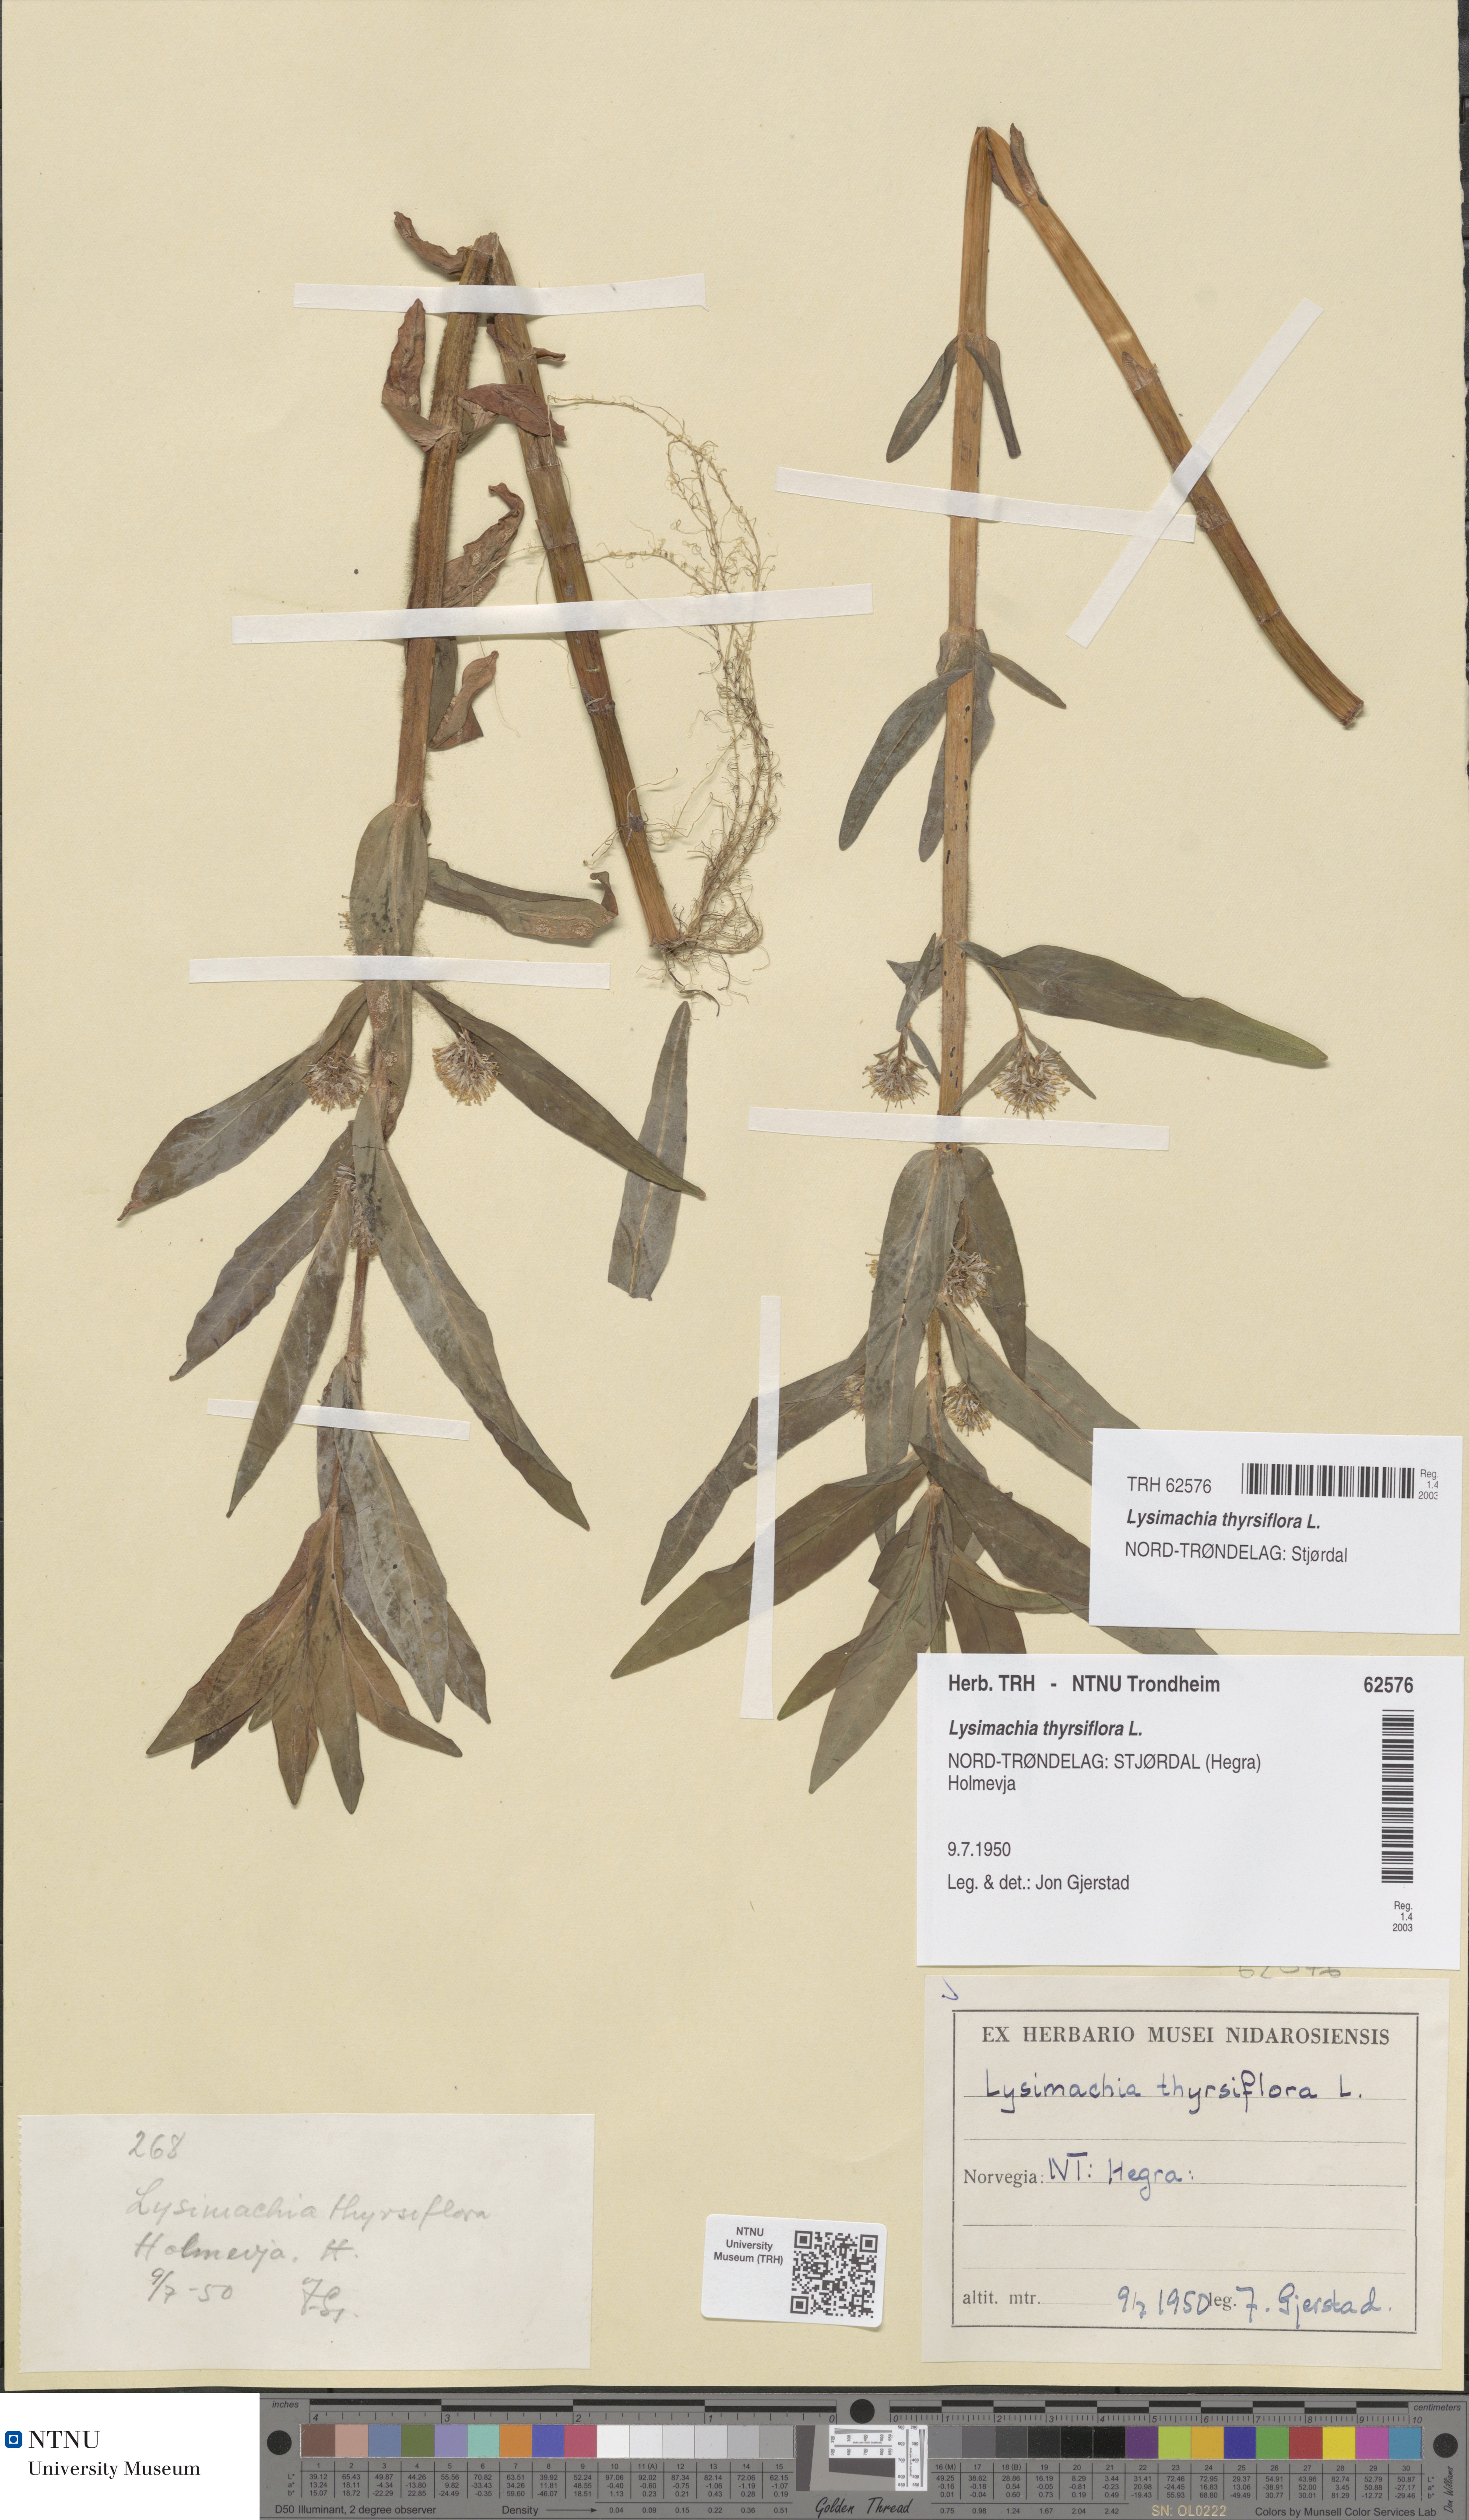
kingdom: Plantae
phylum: Tracheophyta
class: Magnoliopsida
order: Ericales
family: Primulaceae
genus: Lysimachia
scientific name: Lysimachia thyrsiflora
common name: Tufted loosestrife
